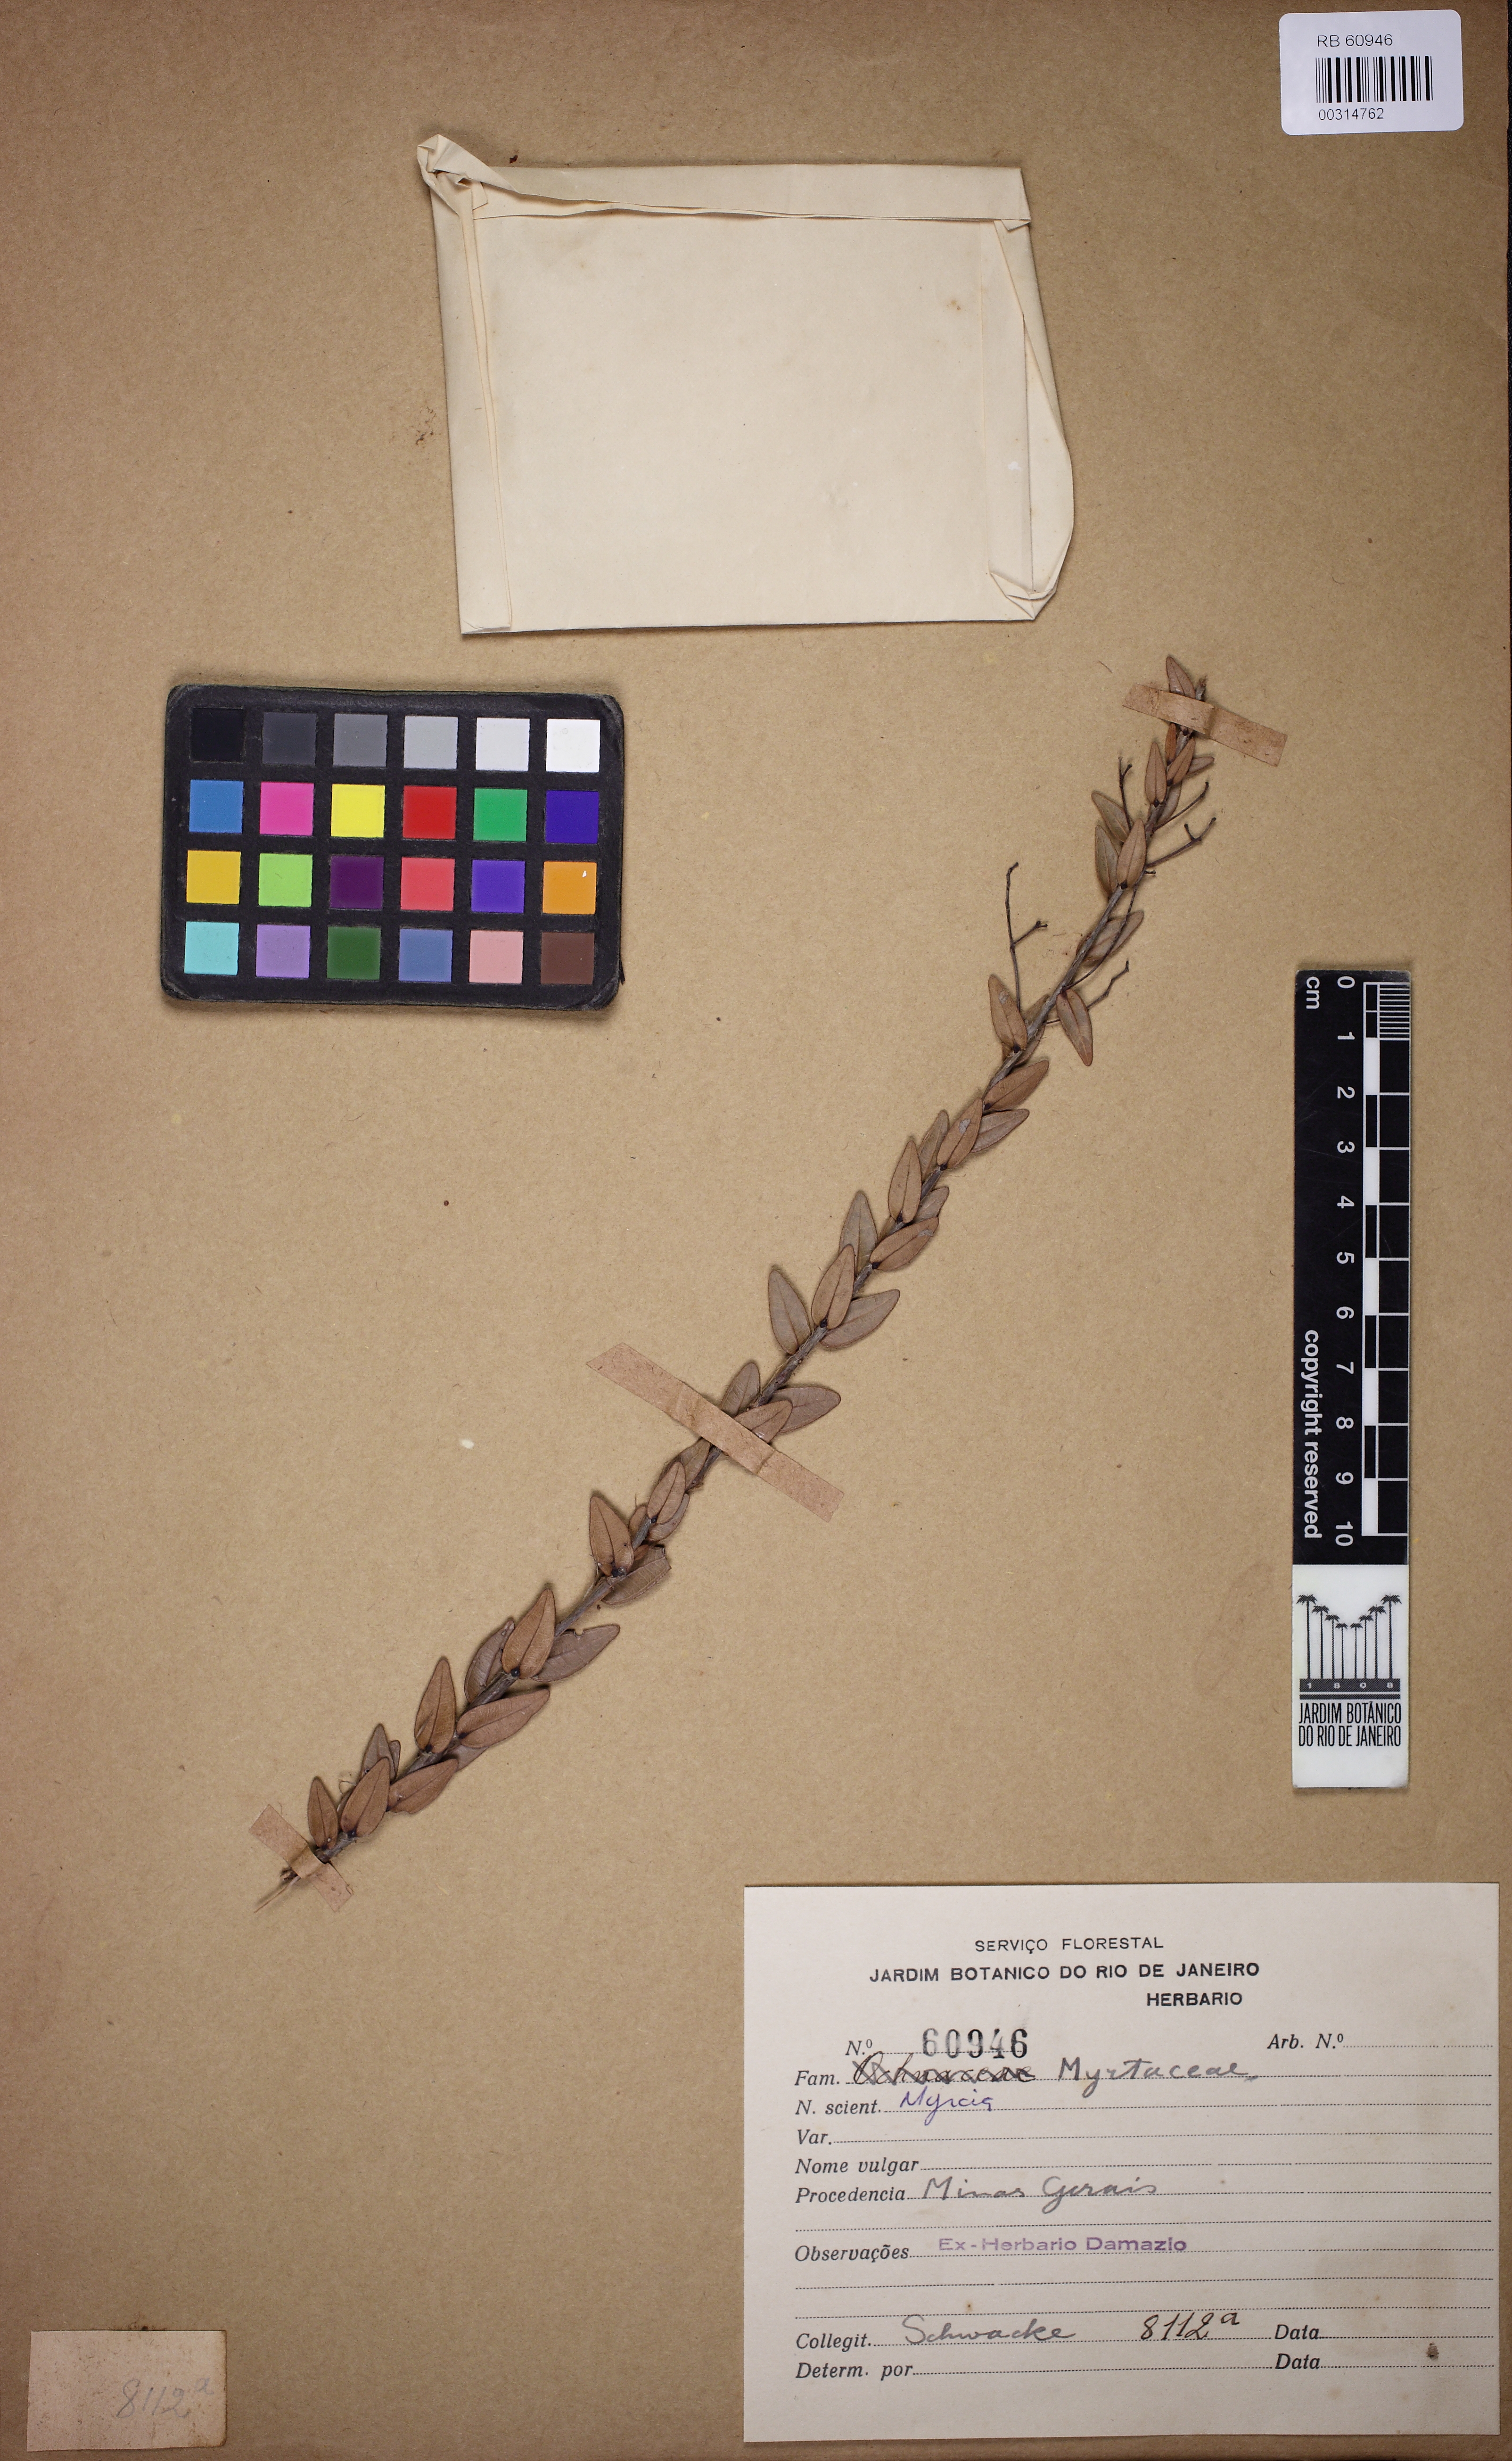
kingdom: Plantae
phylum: Tracheophyta
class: Magnoliopsida
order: Myrtales
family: Myrtaceae
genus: Myrcia
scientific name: Myrcia hypericoides
